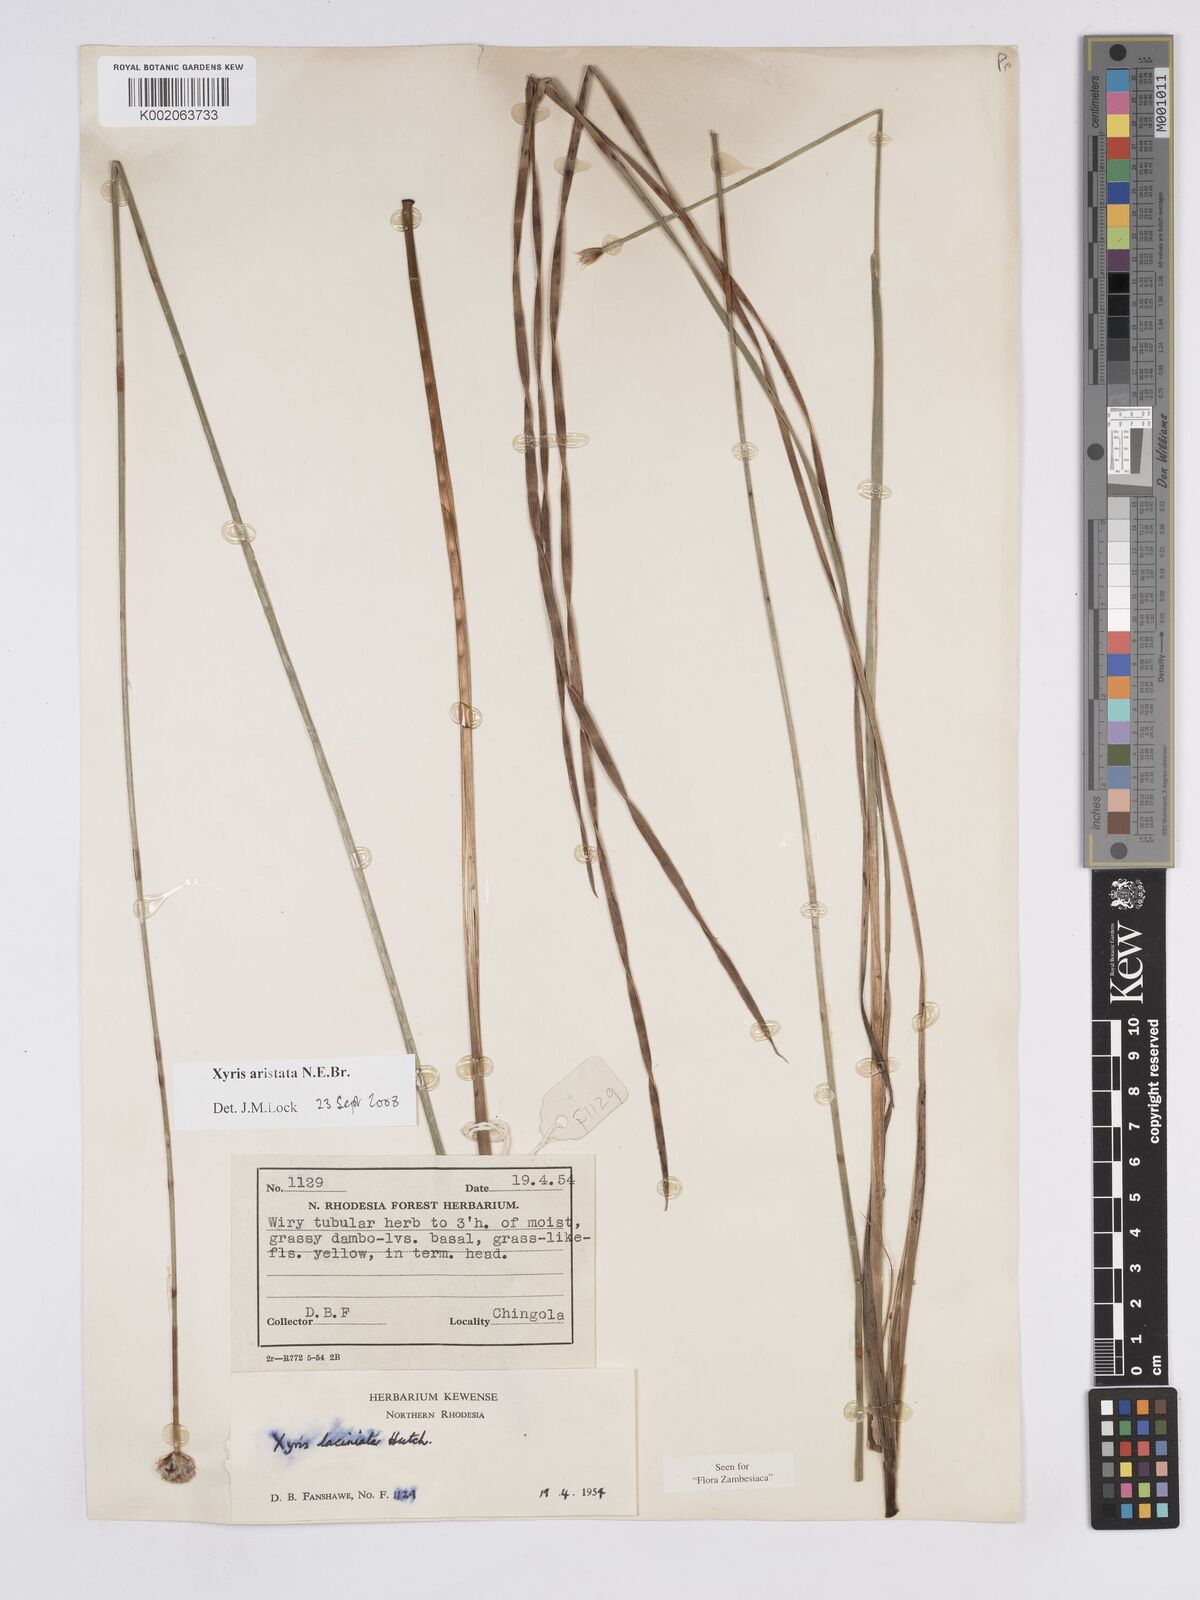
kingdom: Plantae
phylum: Tracheophyta
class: Liliopsida
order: Poales
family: Xyridaceae
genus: Xyris
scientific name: Xyris aristata
